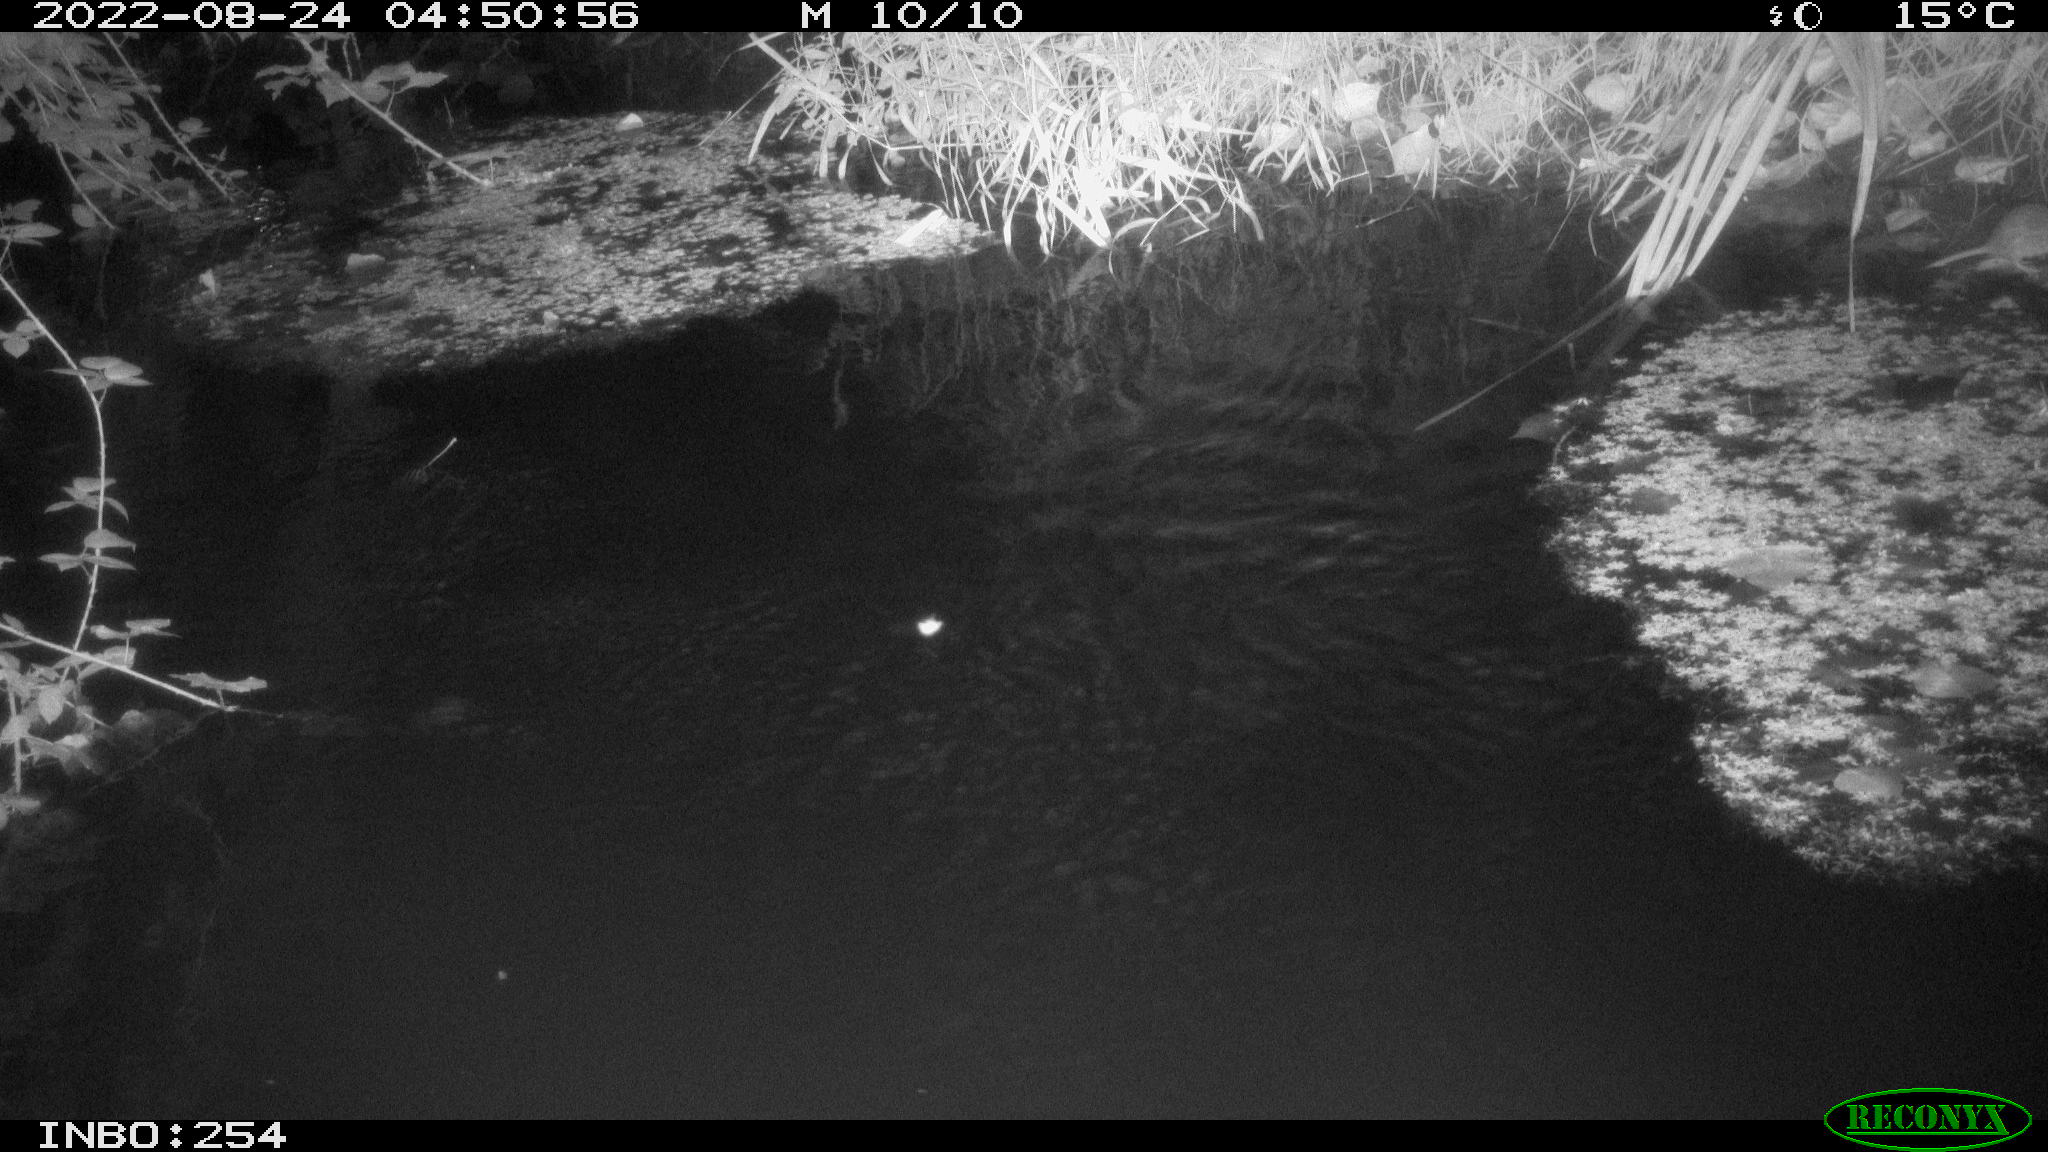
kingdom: Animalia
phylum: Chordata
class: Mammalia
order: Rodentia
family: Muridae
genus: Rattus
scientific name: Rattus norvegicus
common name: Brown rat
